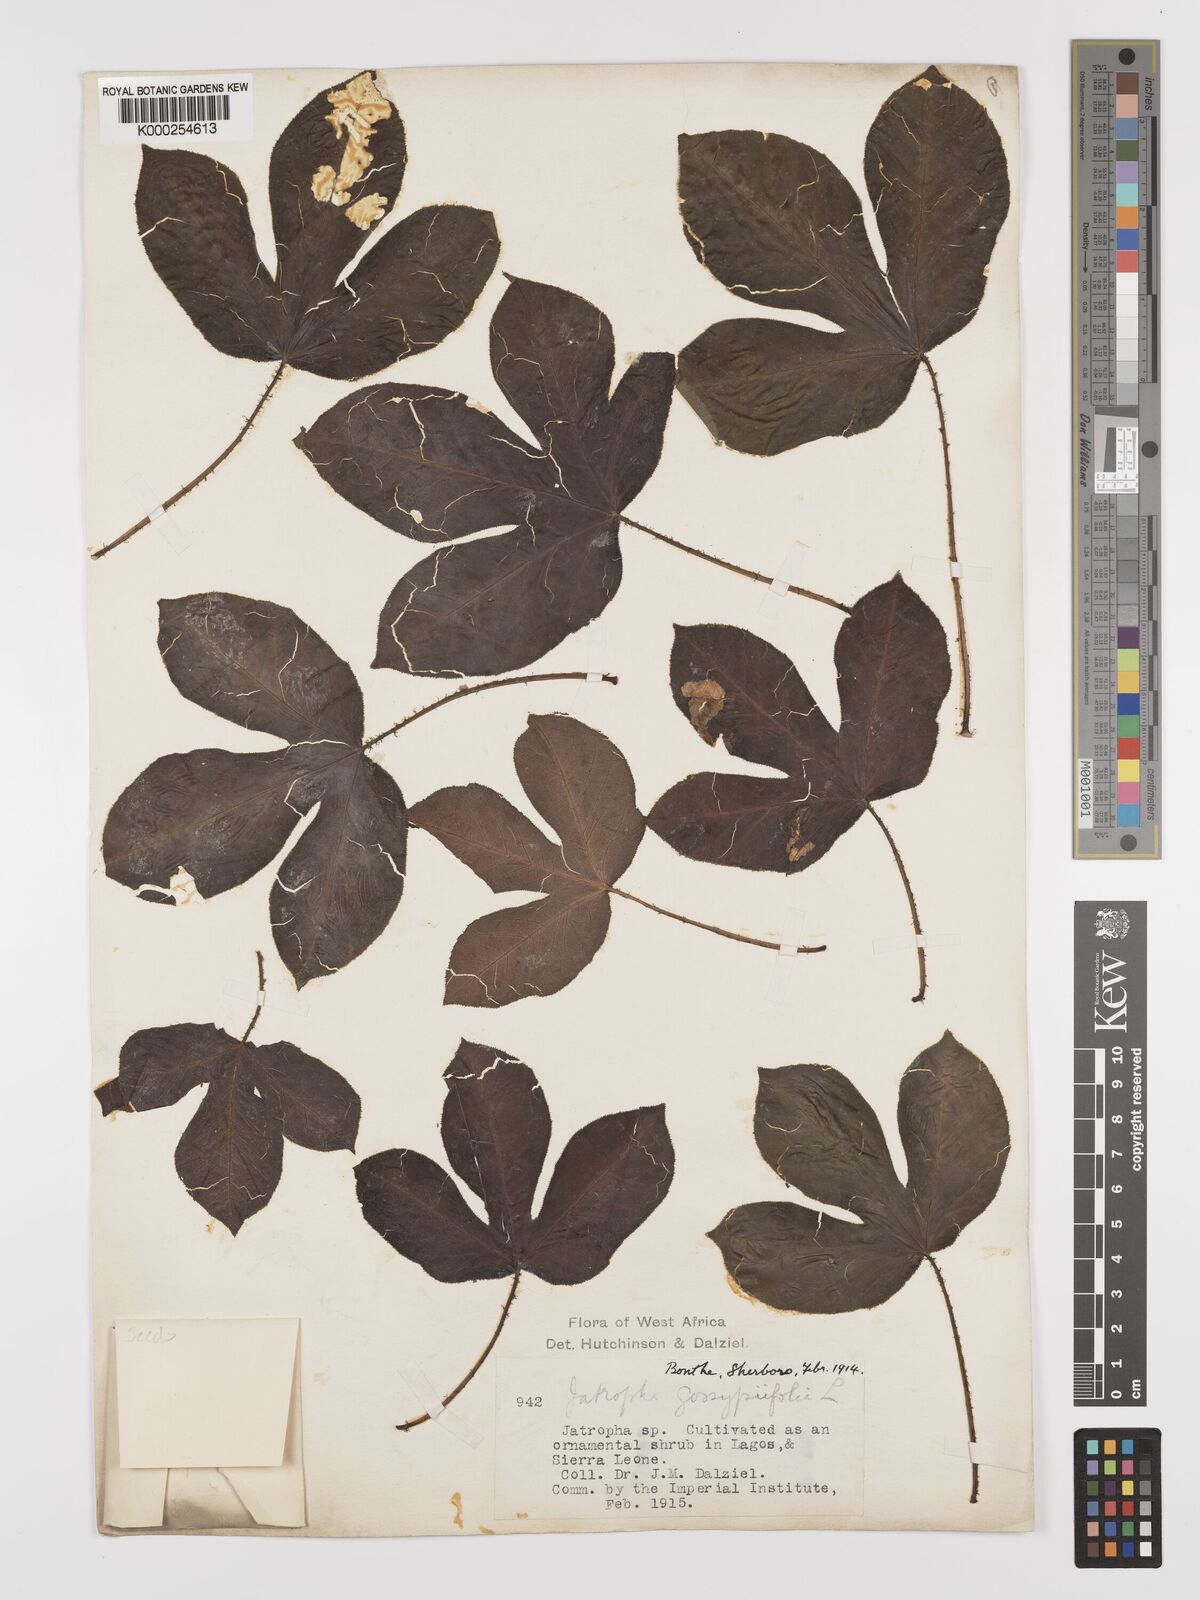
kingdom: Plantae
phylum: Tracheophyta
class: Magnoliopsida
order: Malpighiales
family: Euphorbiaceae
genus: Jatropha
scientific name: Jatropha gossypiifolia
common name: Bellyache bush
